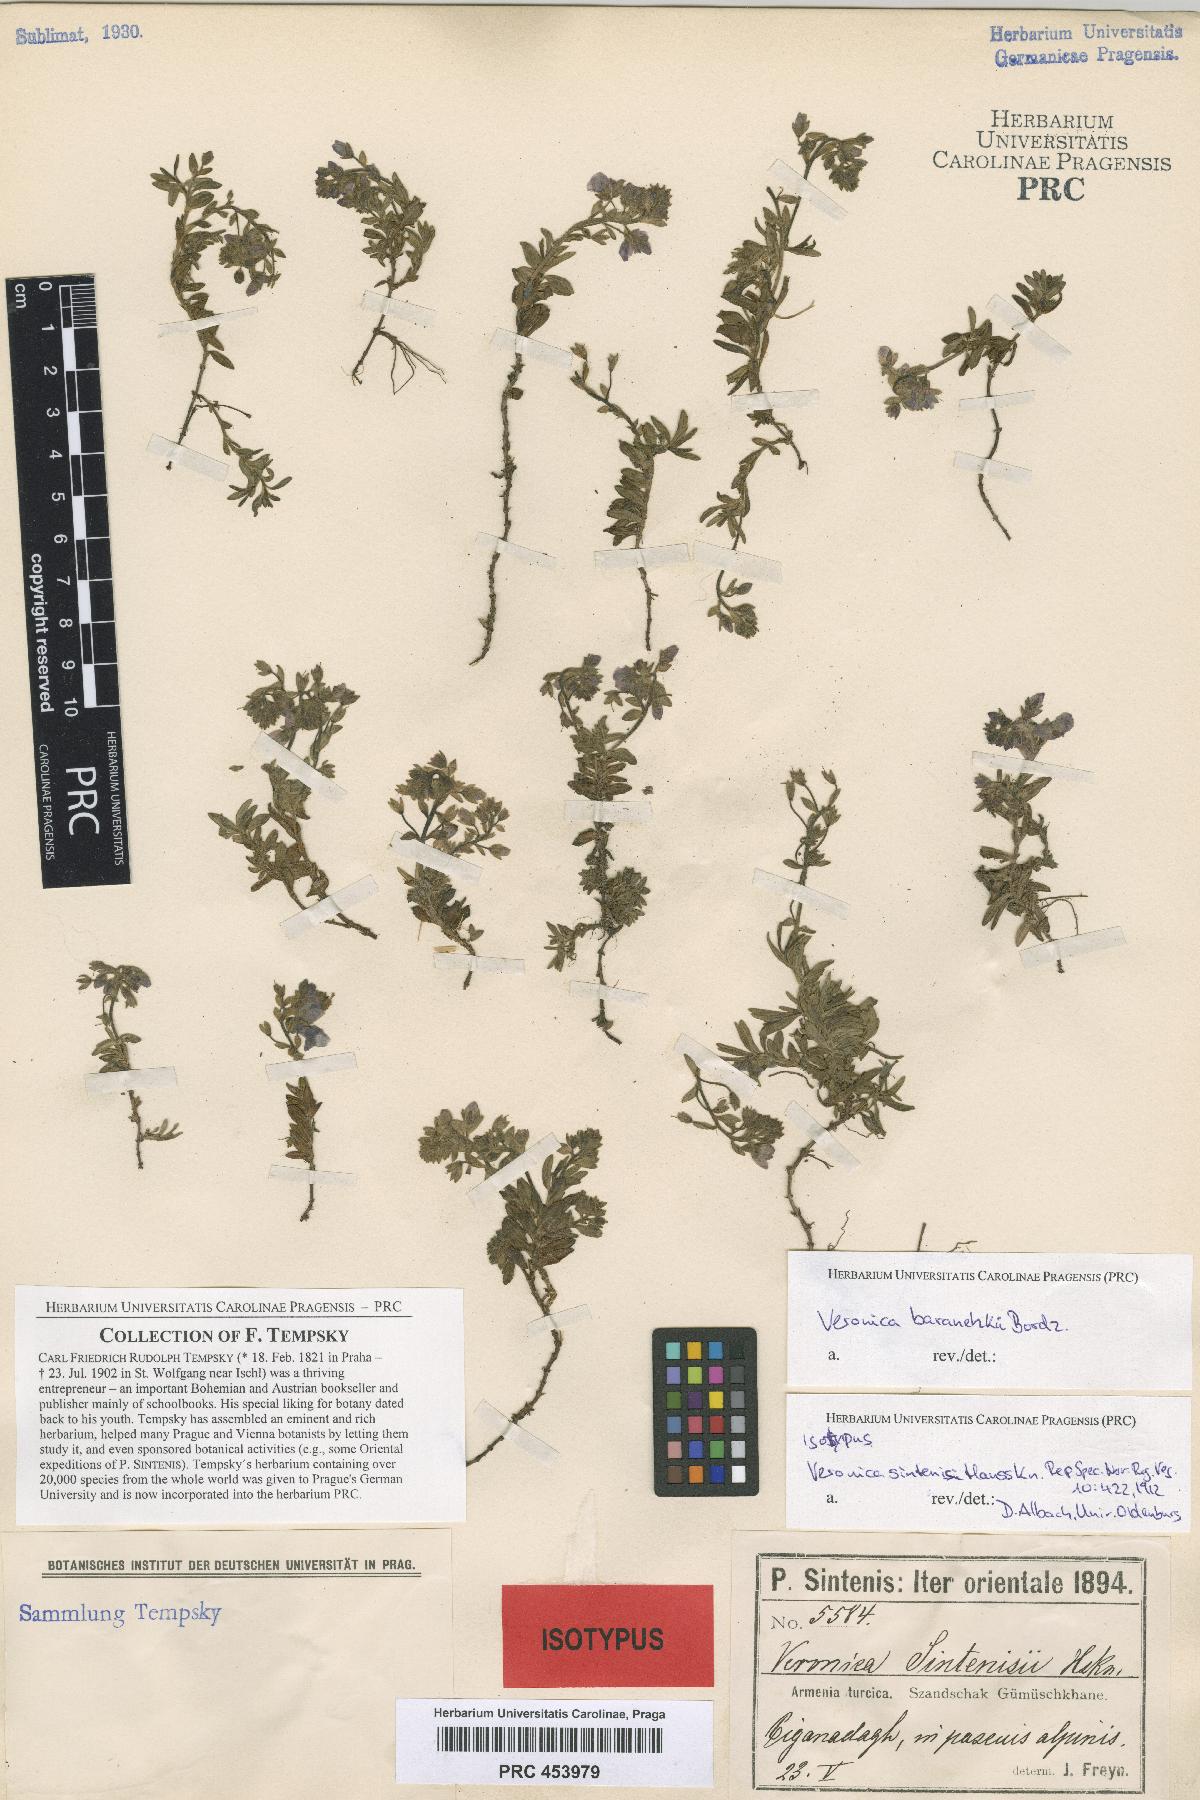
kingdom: Plantae
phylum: Tracheophyta
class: Magnoliopsida
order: Lamiales
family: Plantaginaceae
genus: Veronica
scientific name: Veronica denudata
